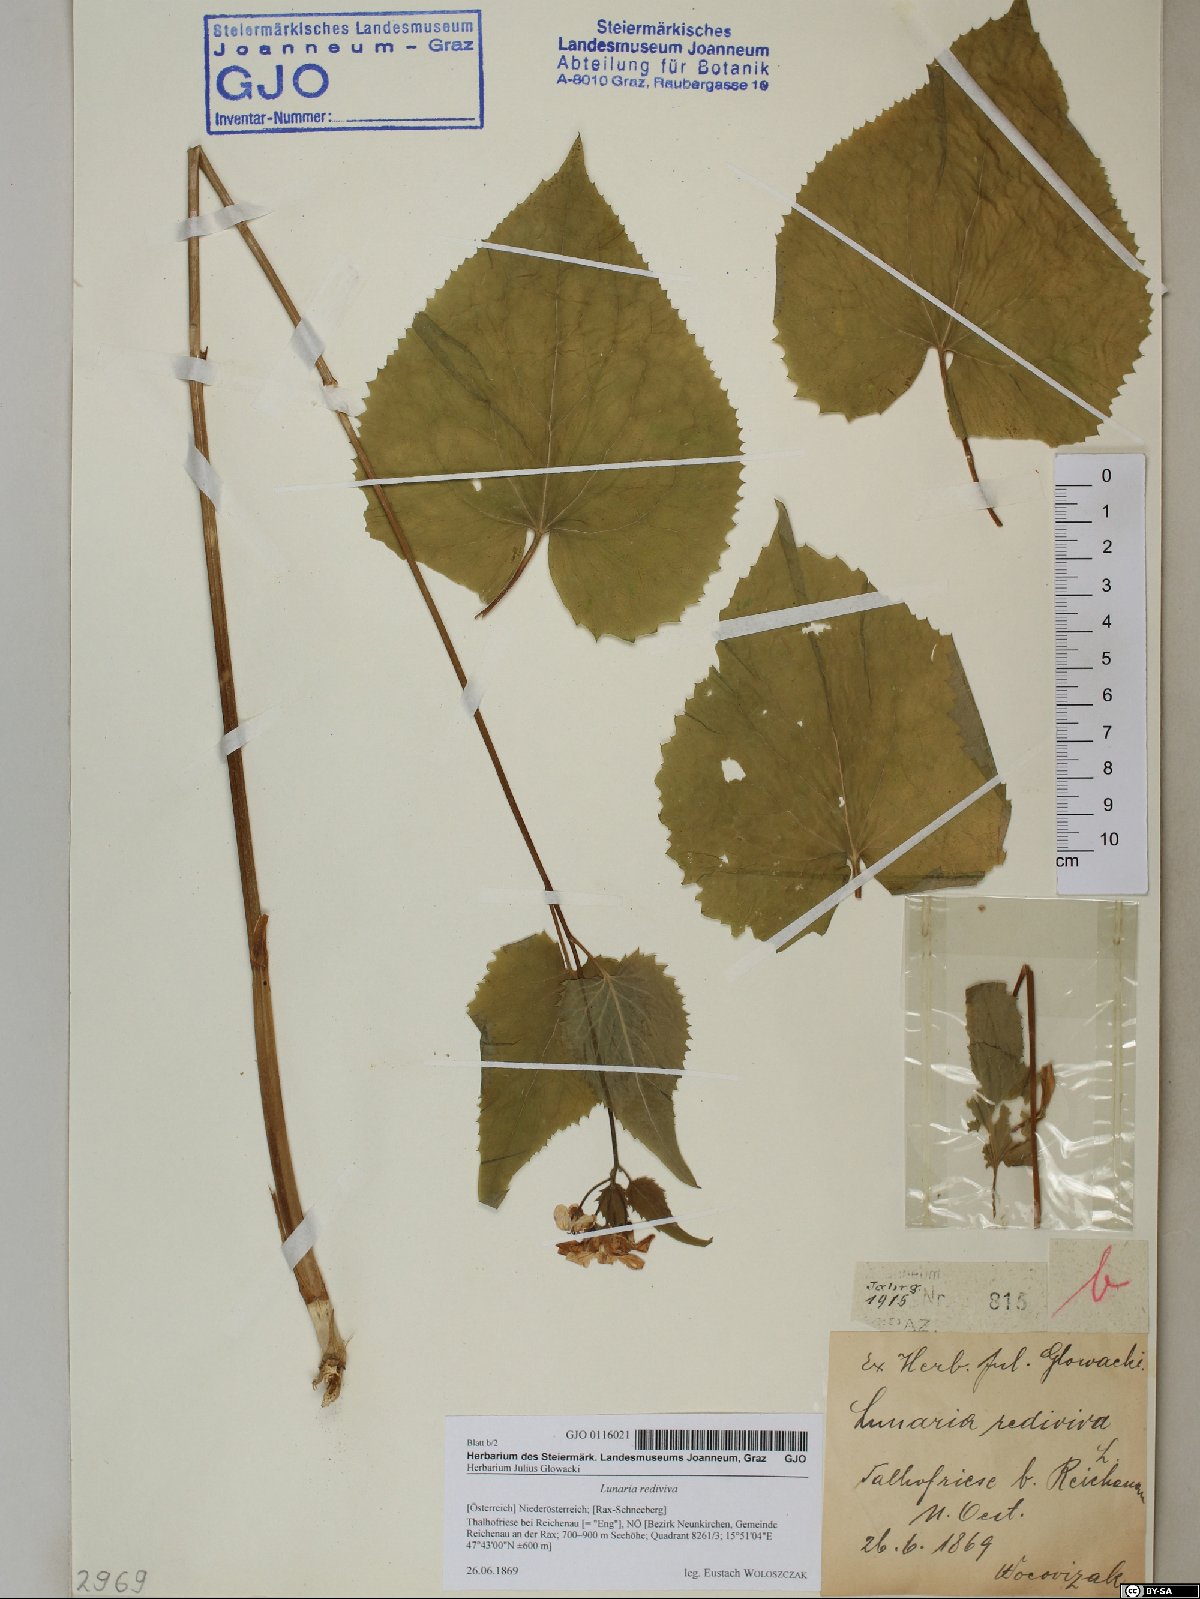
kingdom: Plantae
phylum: Tracheophyta
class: Magnoliopsida
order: Brassicales
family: Brassicaceae
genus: Lunaria
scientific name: Lunaria rediviva
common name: Perennial honesty
